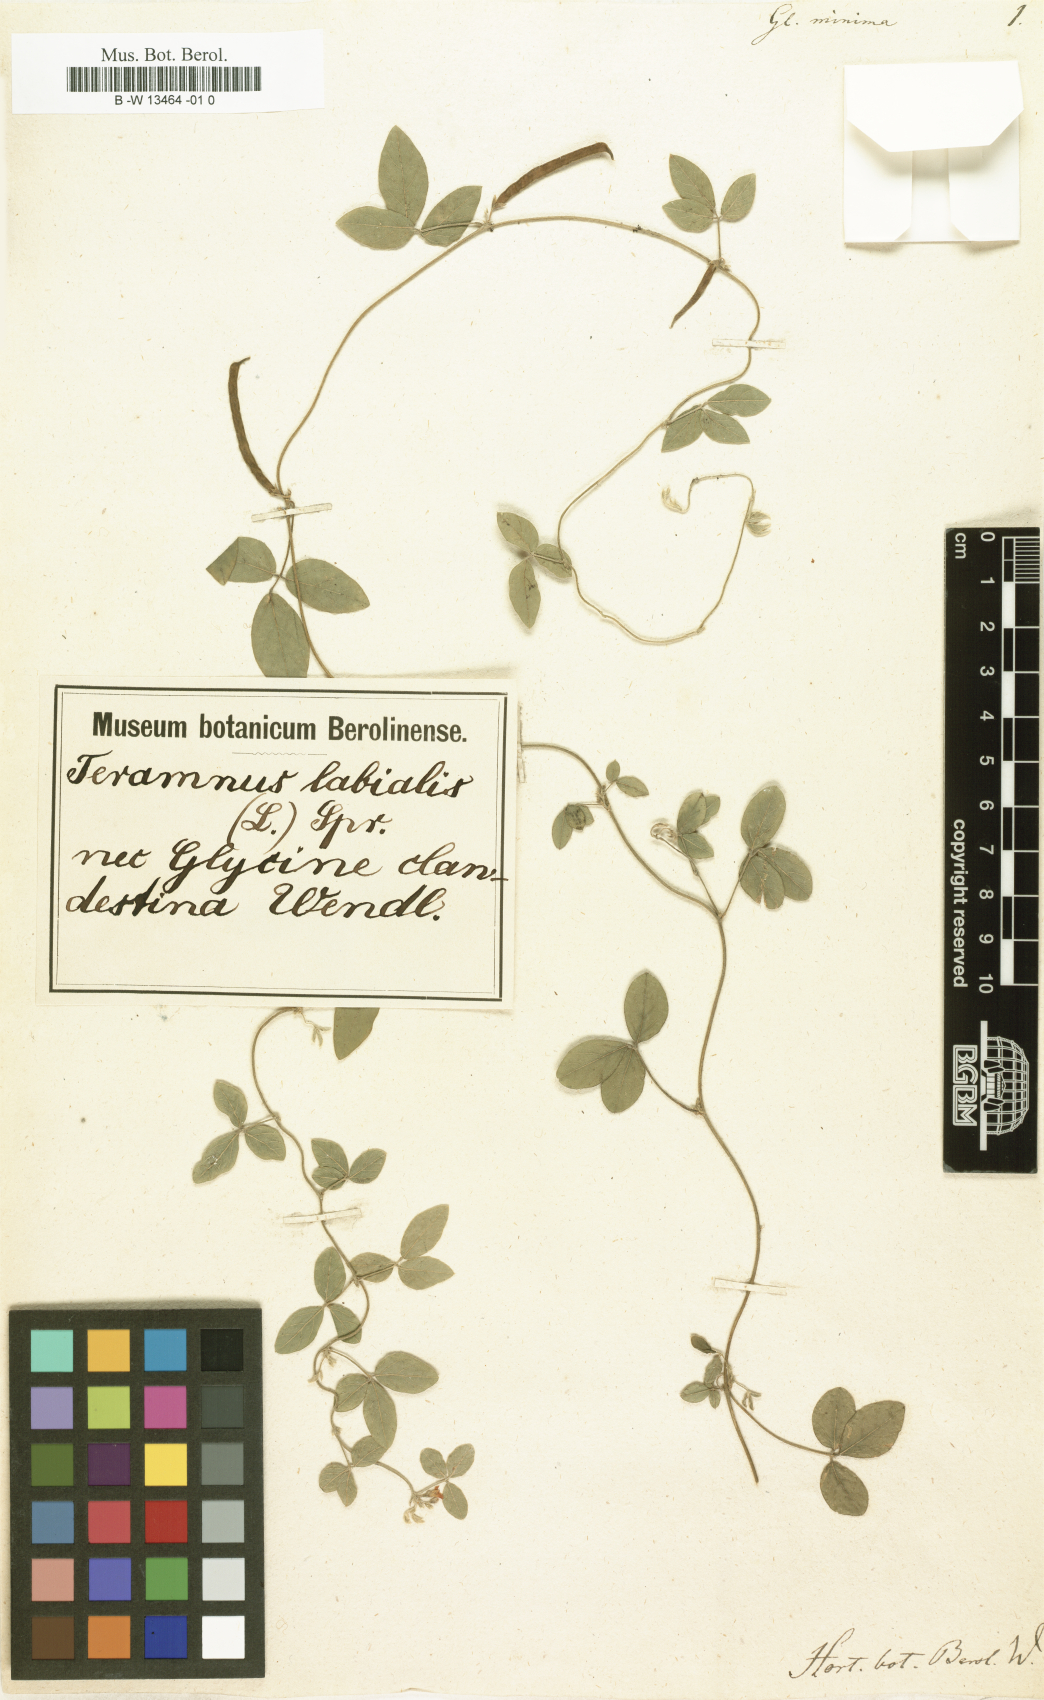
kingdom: Plantae
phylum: Tracheophyta
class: Magnoliopsida
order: Fabales
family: Fabaceae
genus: Glycine
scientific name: Glycine clandestina
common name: Twining glycine
